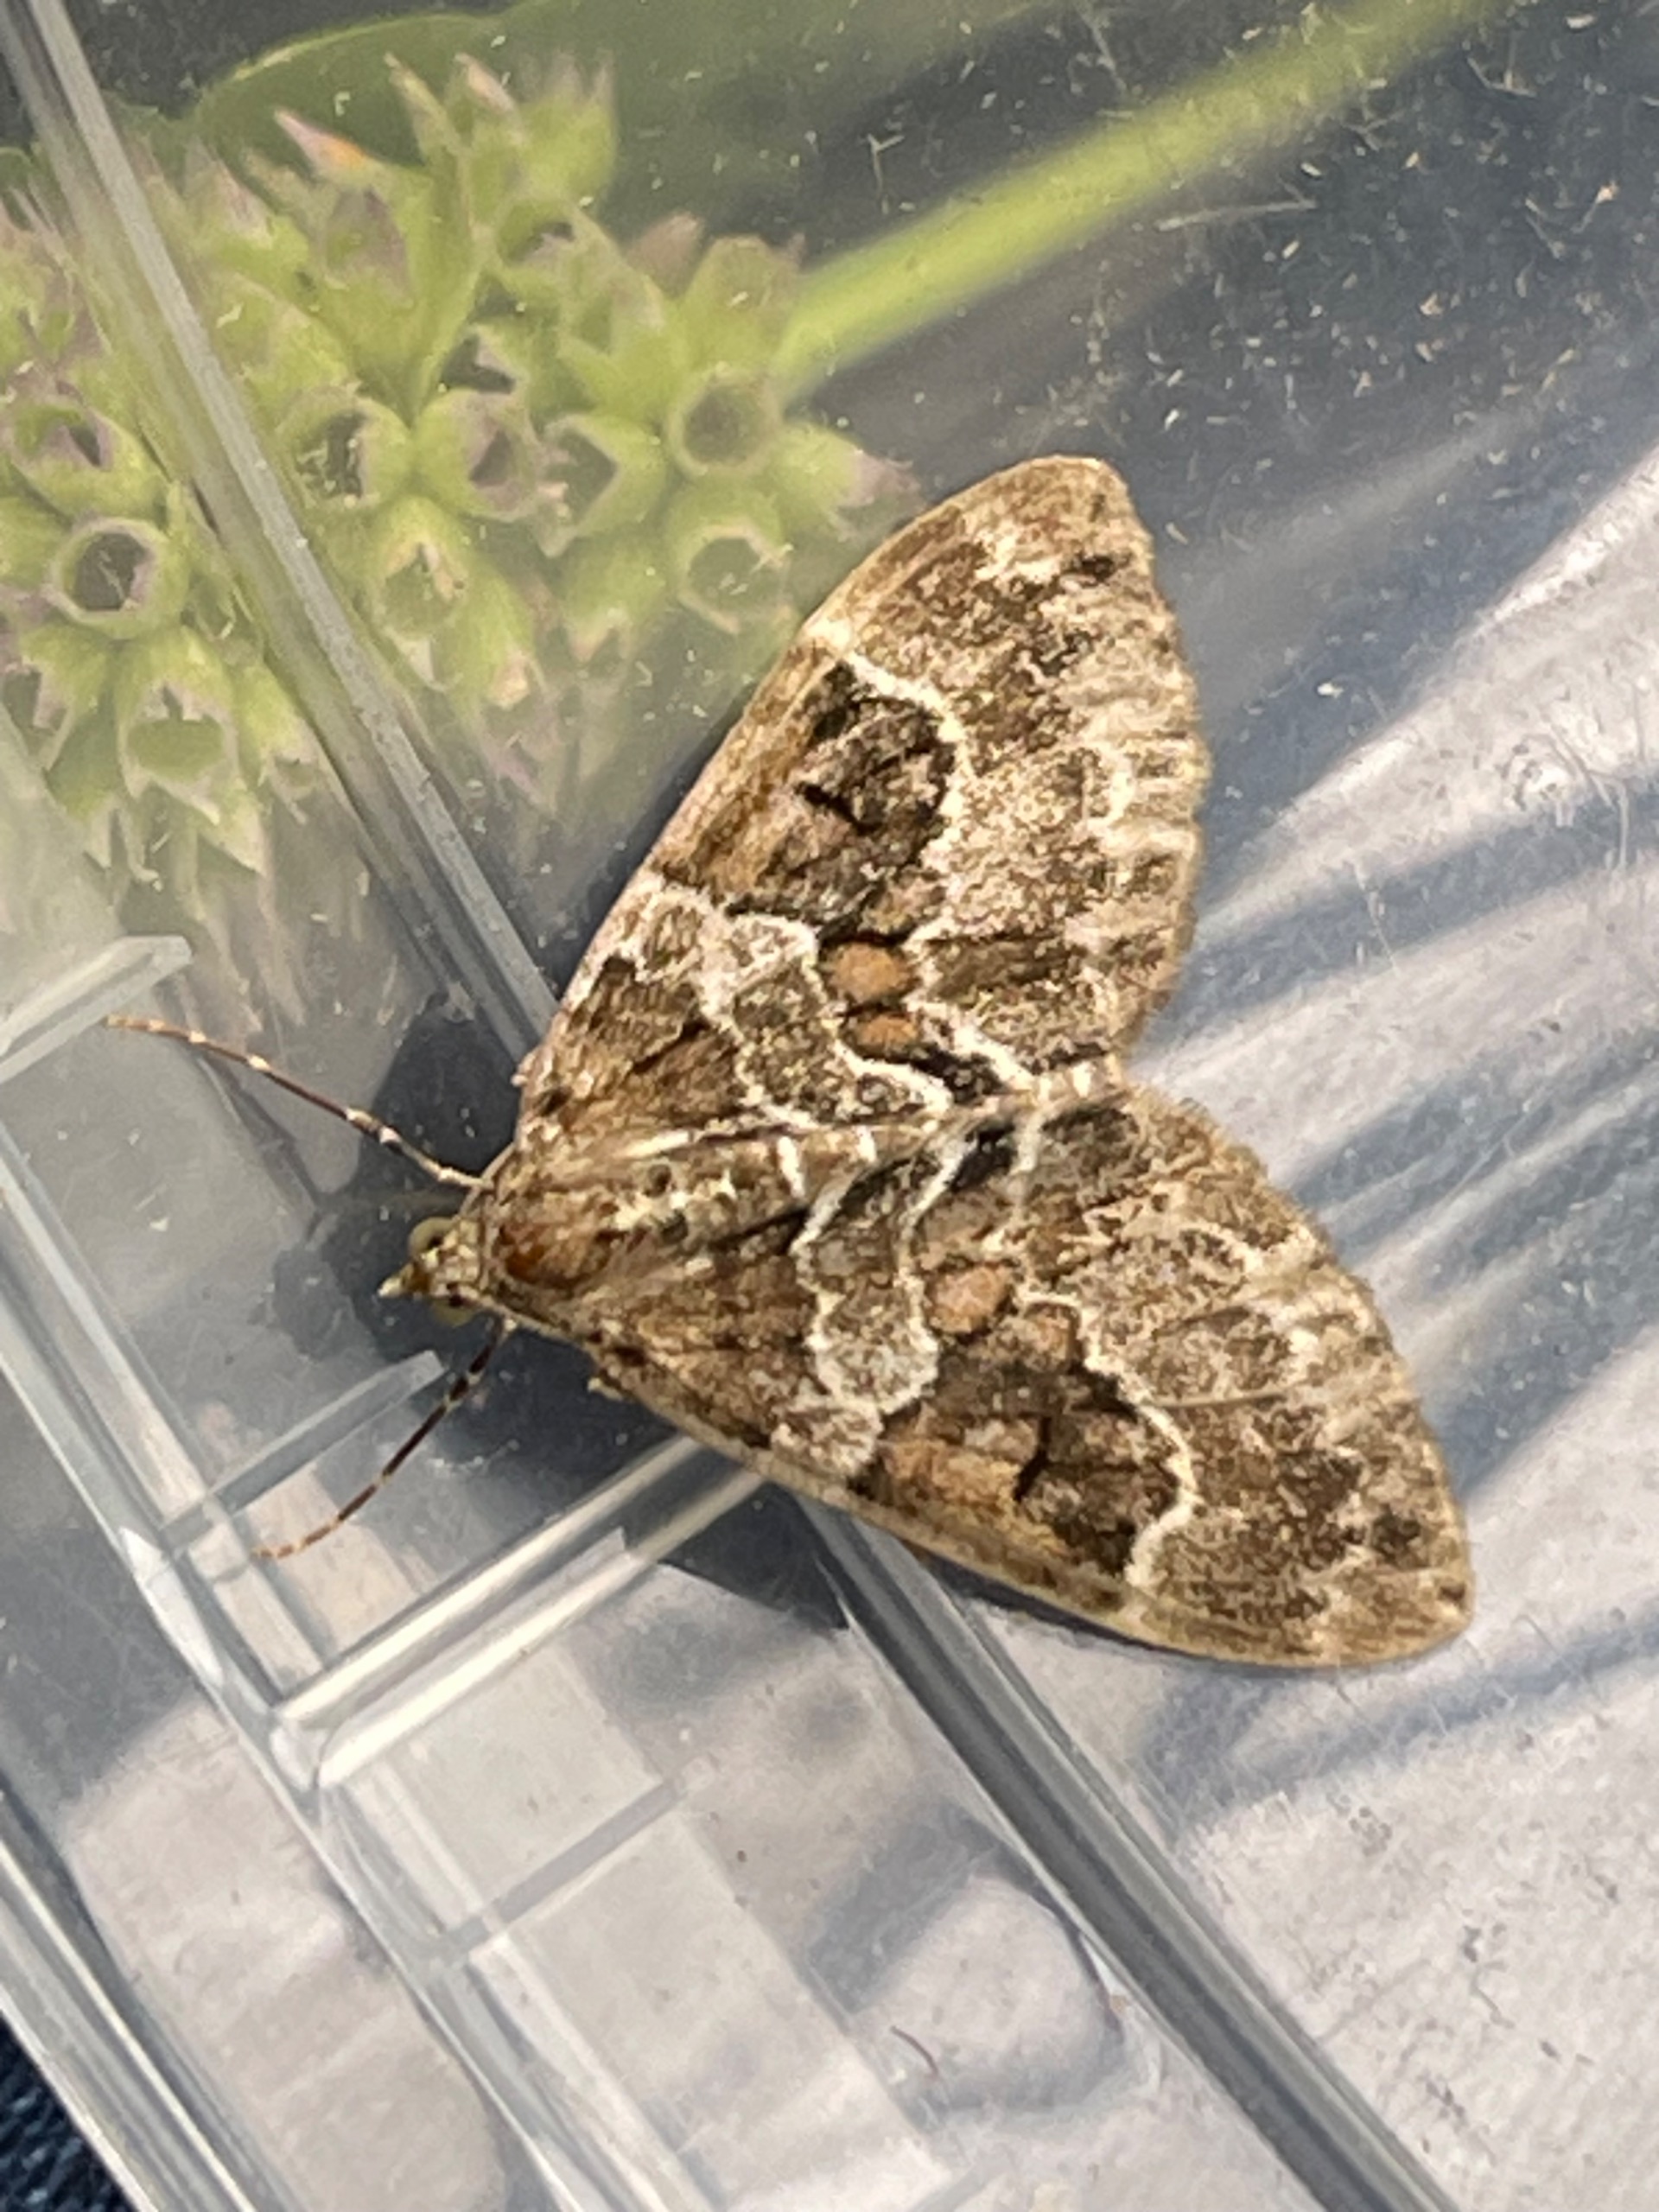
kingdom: Animalia
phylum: Arthropoda
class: Insecta
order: Lepidoptera
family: Geometridae
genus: Thera
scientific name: Thera britannica
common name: Ædelgranmåler
